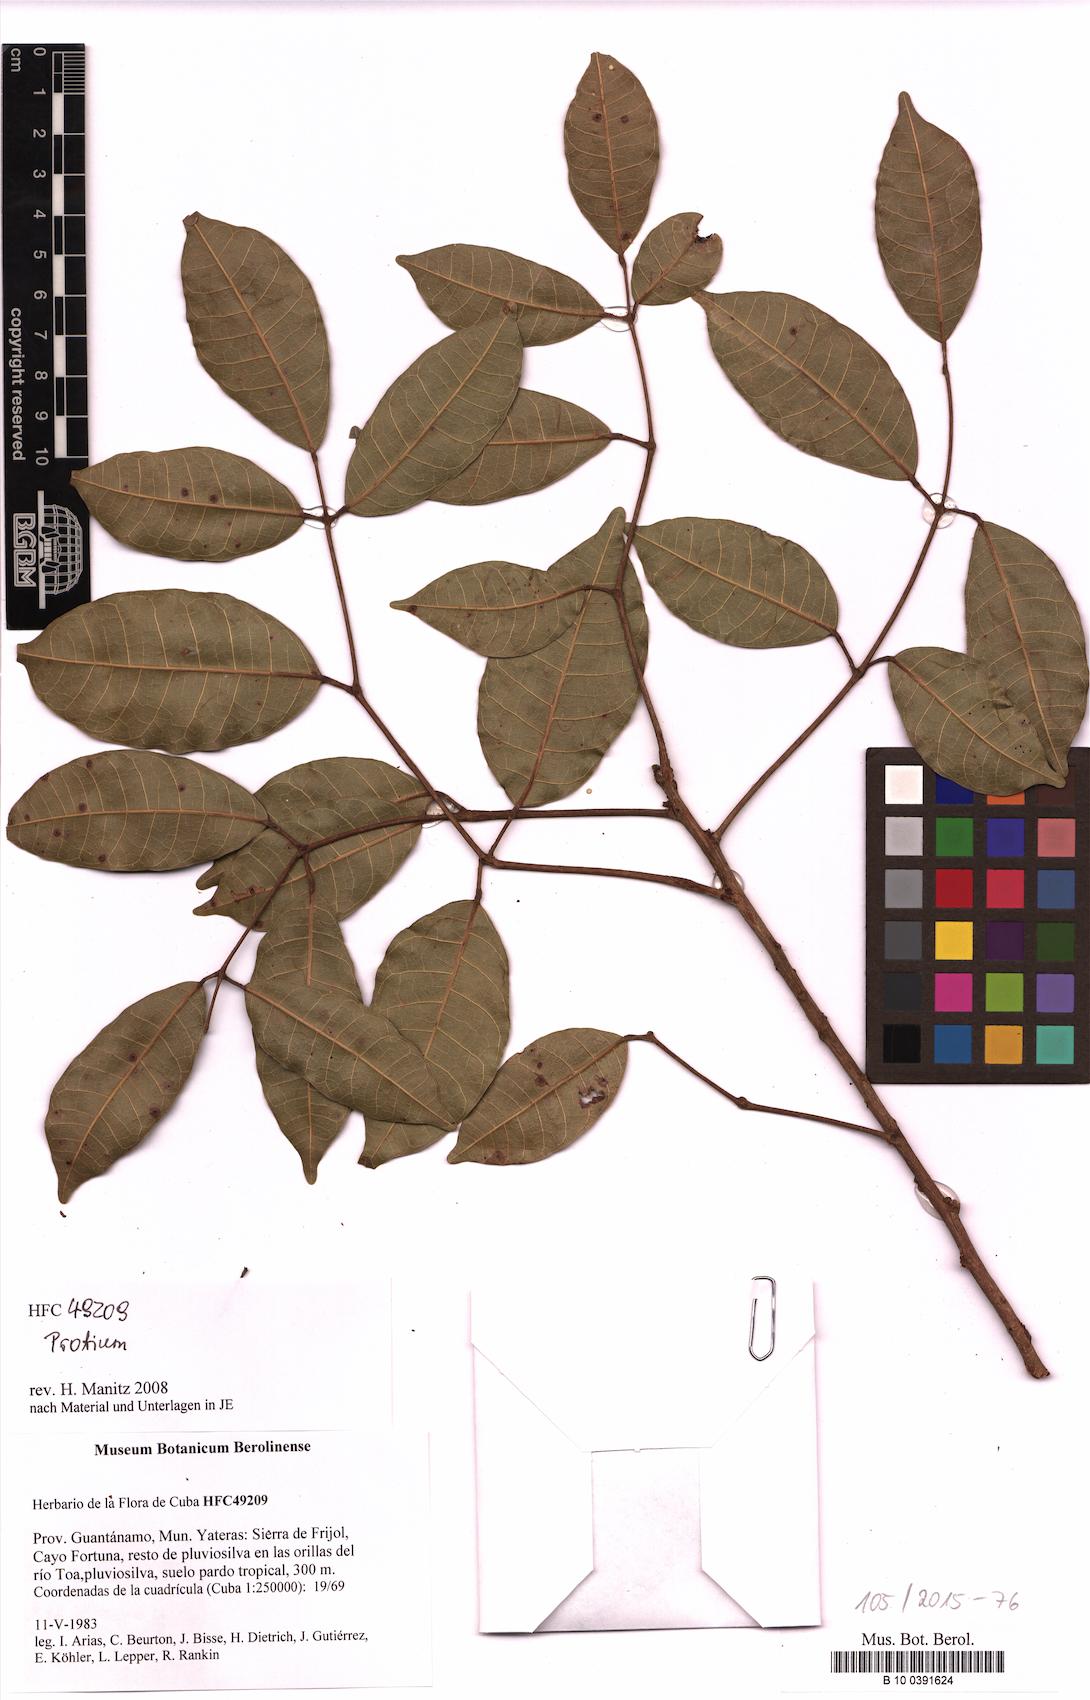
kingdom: Plantae
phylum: Tracheophyta
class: Magnoliopsida
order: Sapindales
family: Burseraceae
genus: Protium
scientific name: Protium
